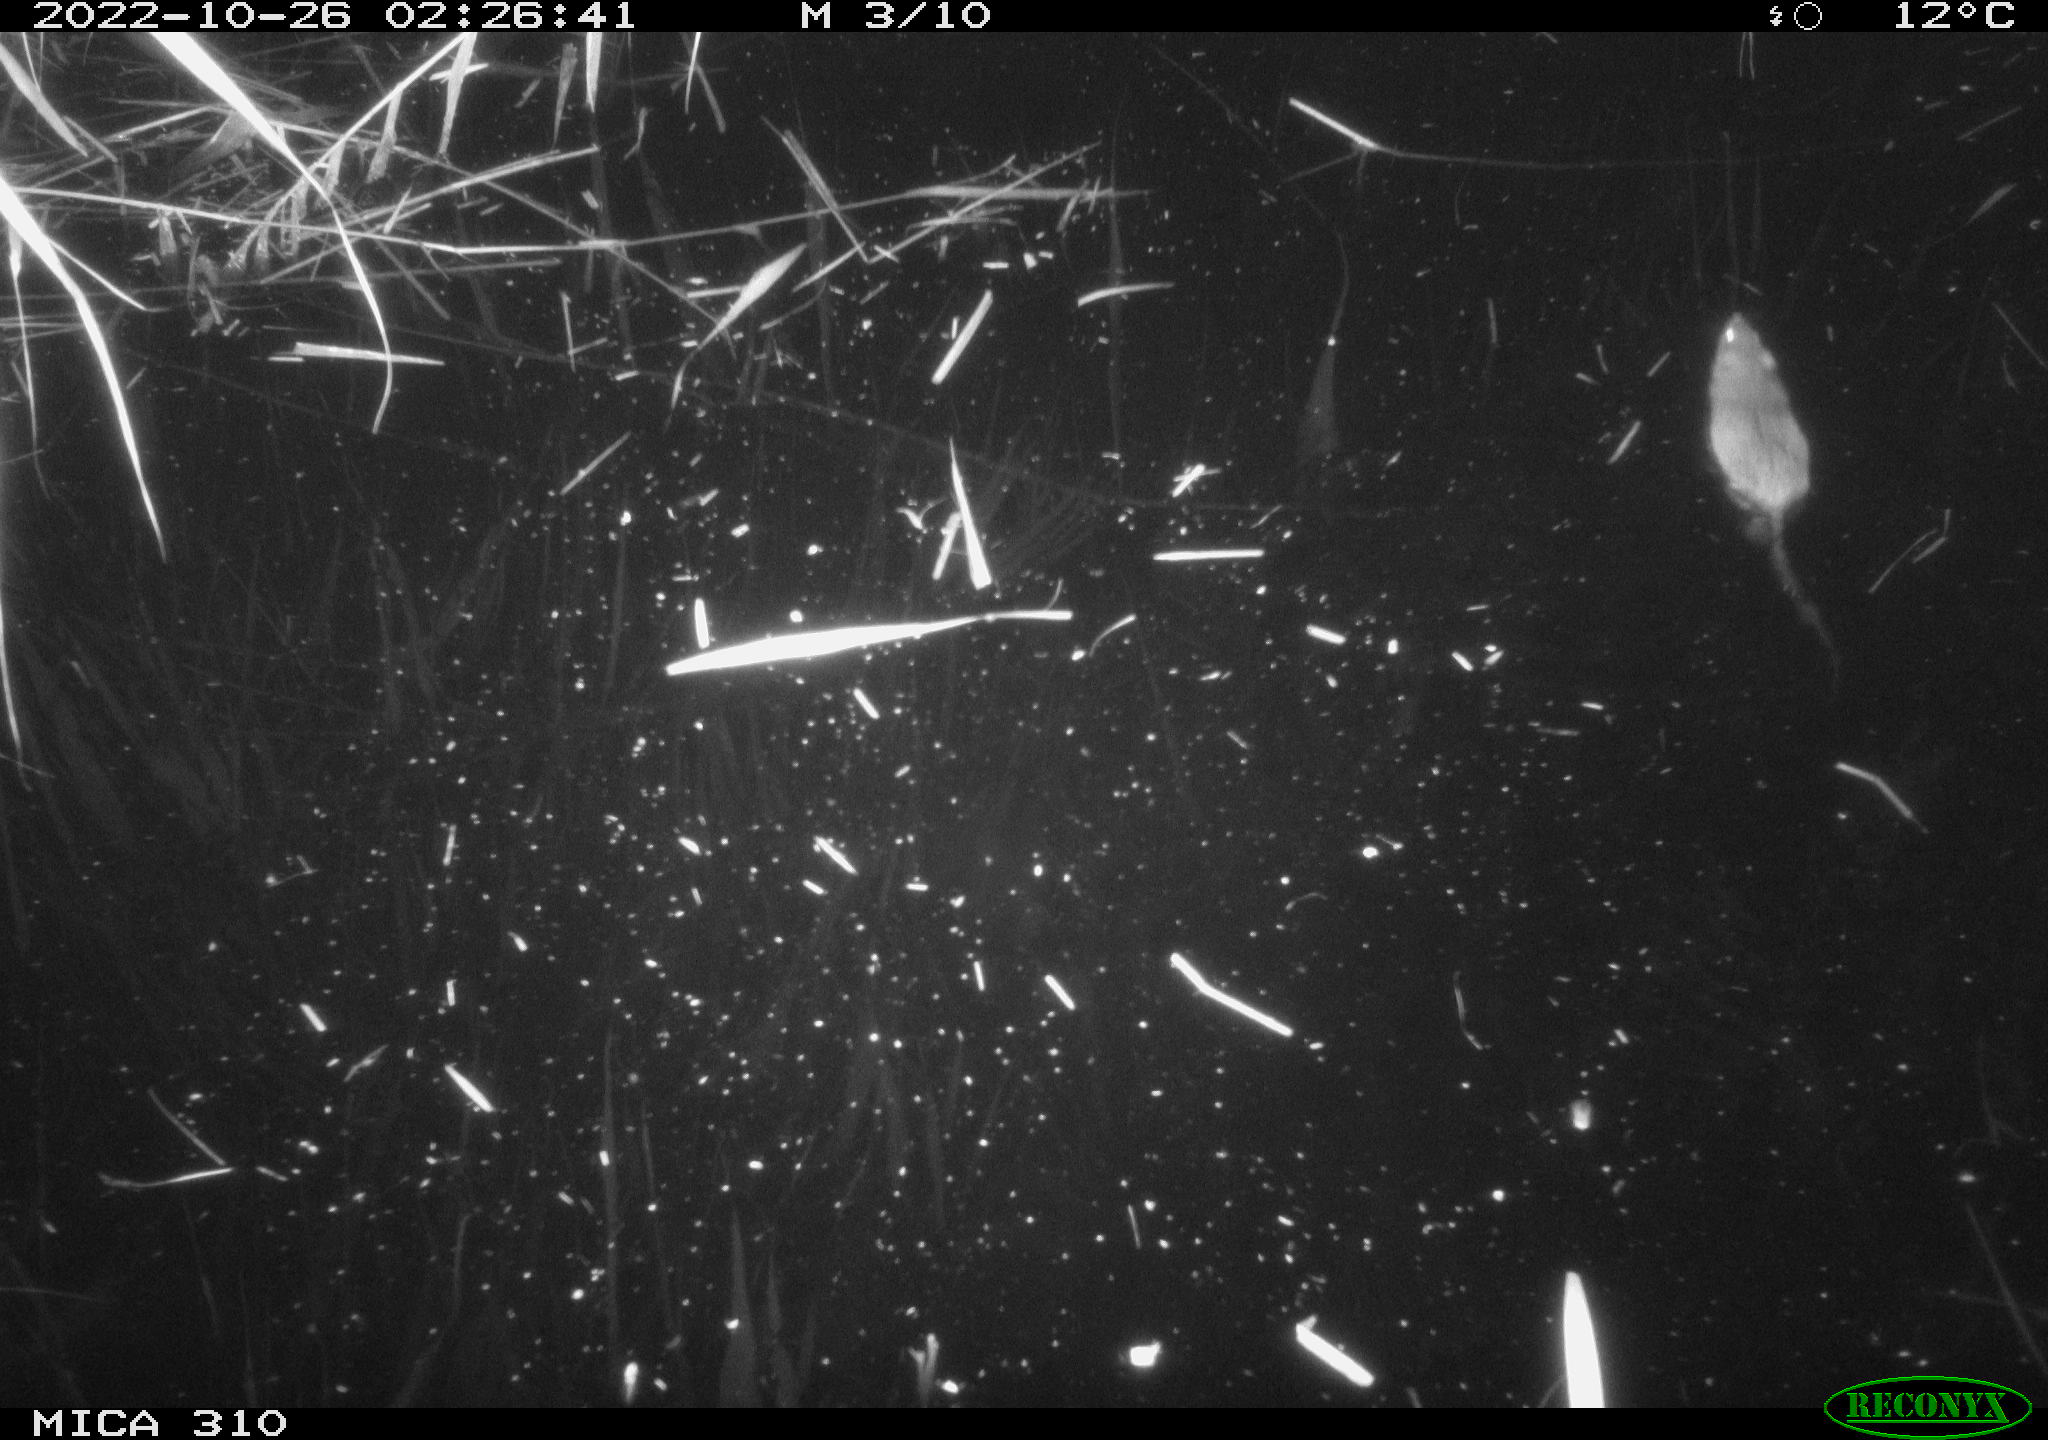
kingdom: Animalia
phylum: Chordata
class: Mammalia
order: Rodentia
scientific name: Rodentia
